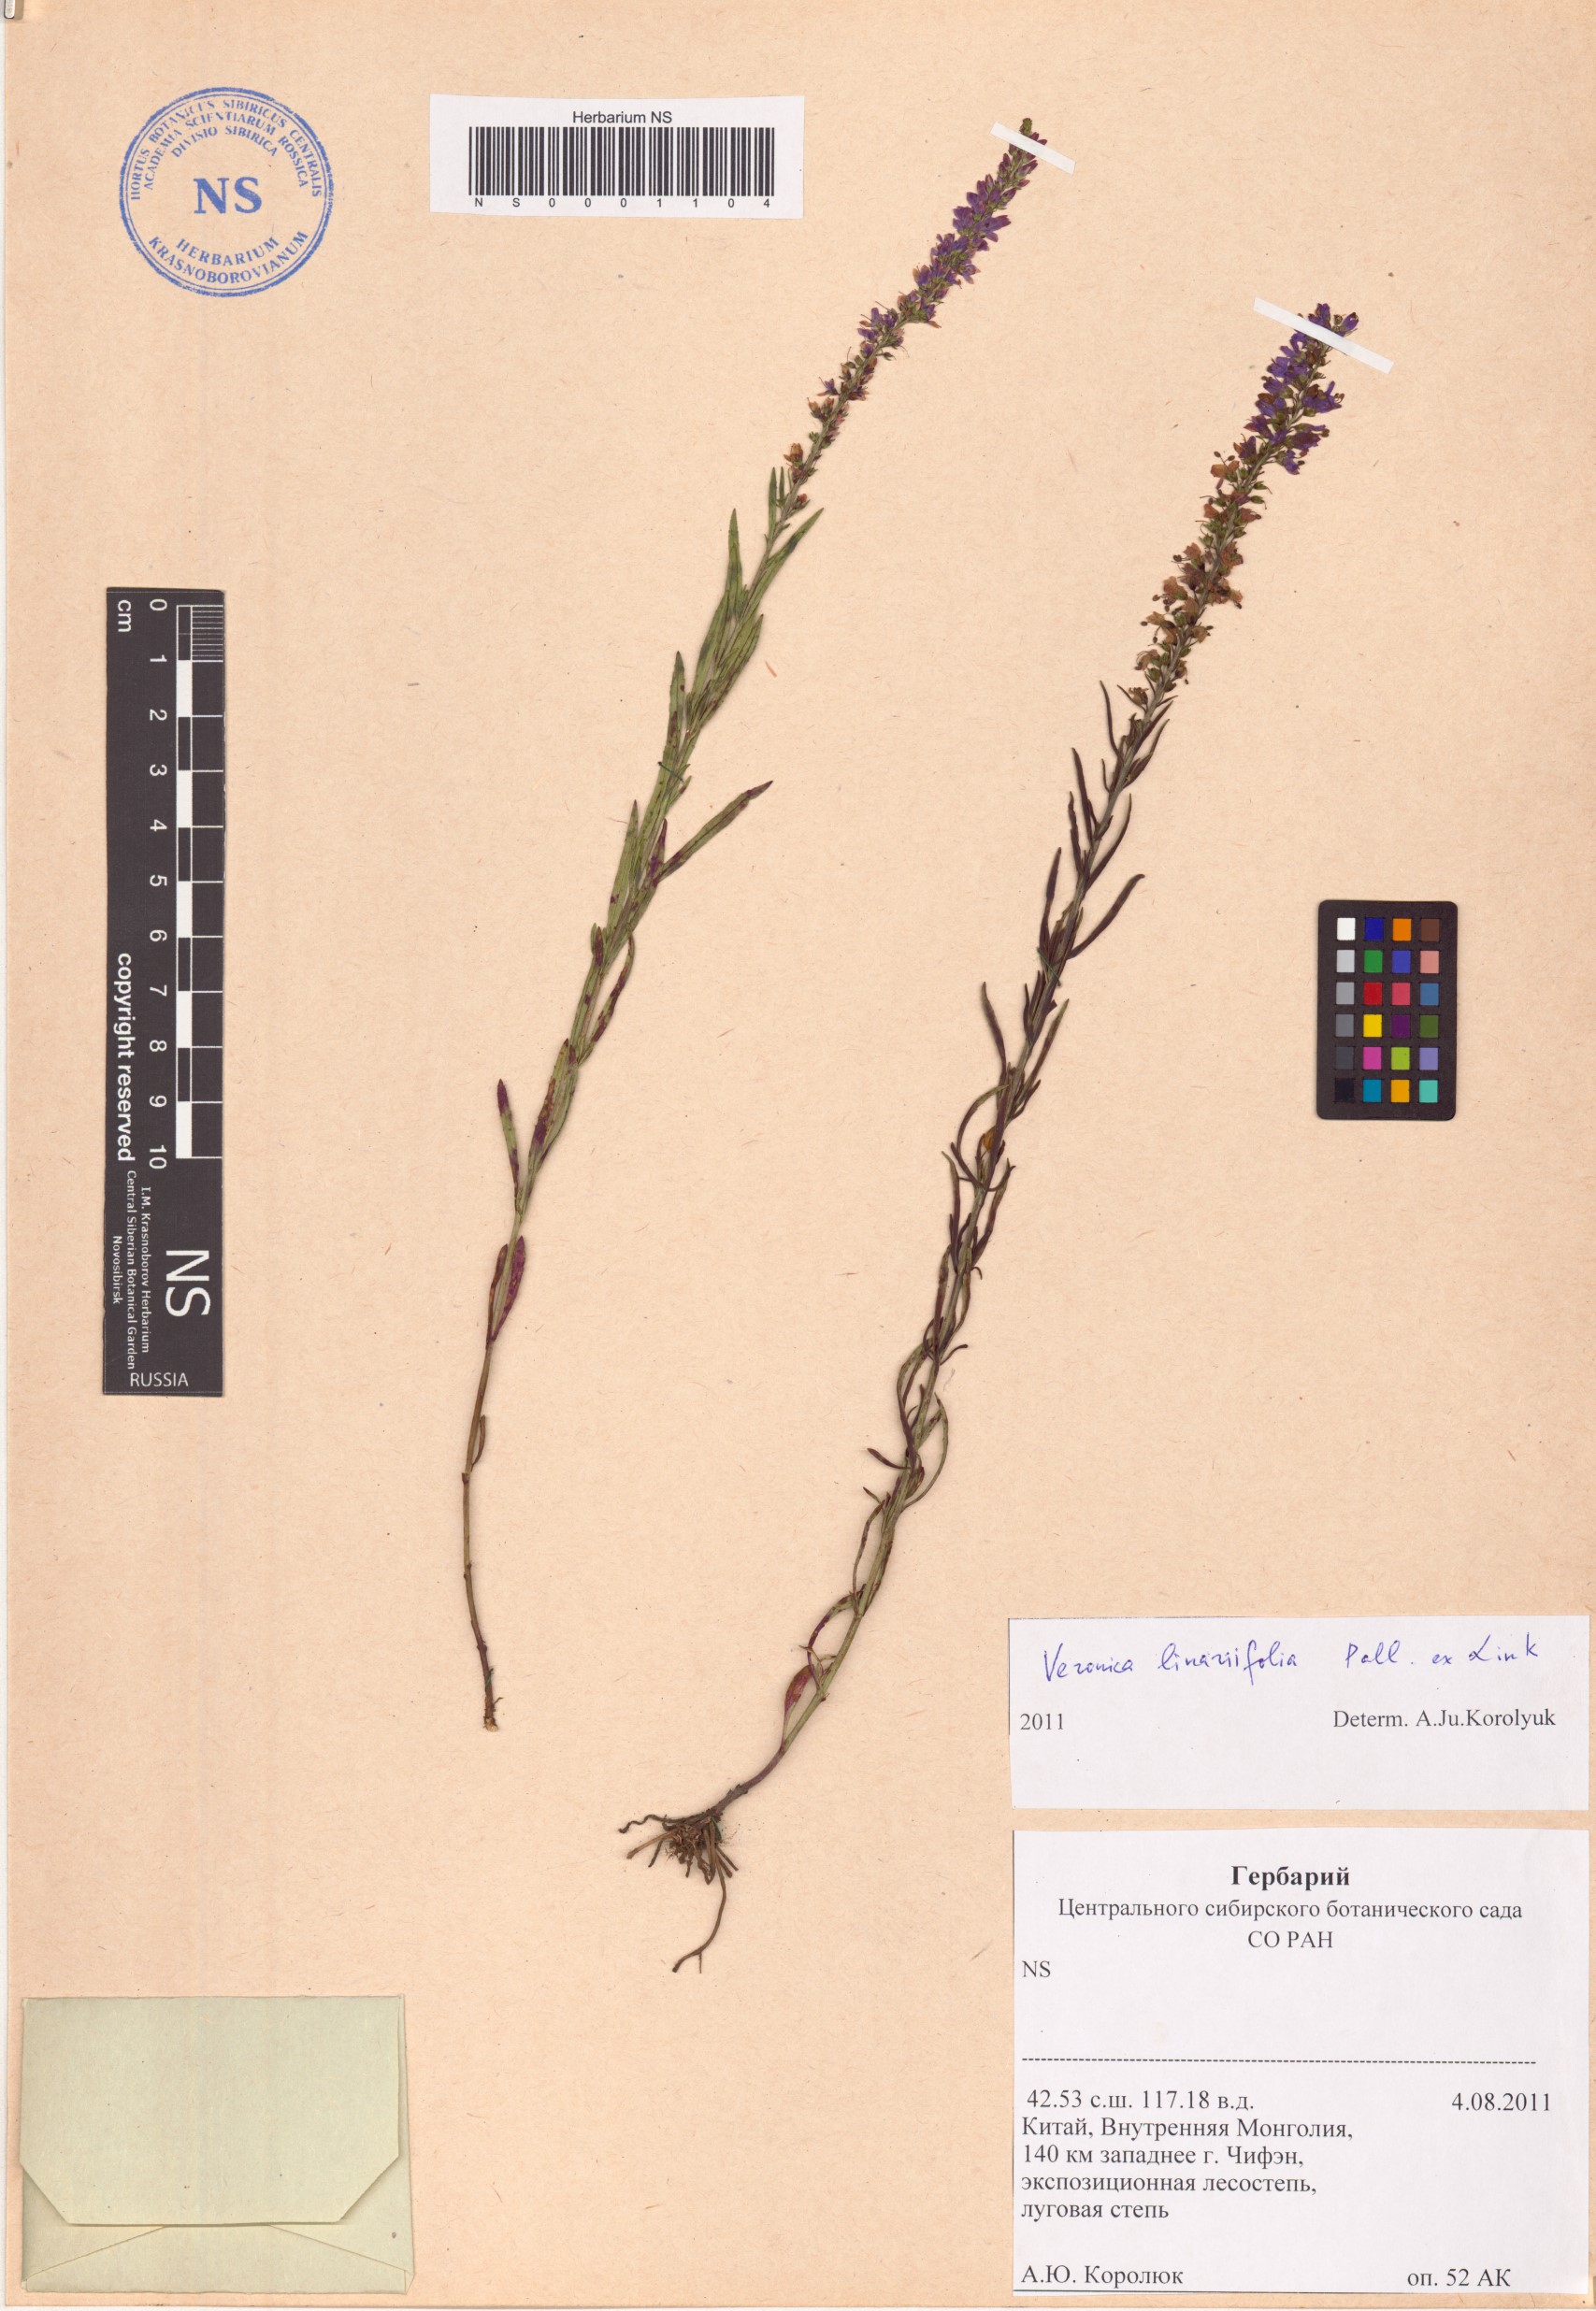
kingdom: Plantae
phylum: Tracheophyta
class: Magnoliopsida
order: Lamiales
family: Plantaginaceae
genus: Veronica
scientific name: Veronica linariifolia
